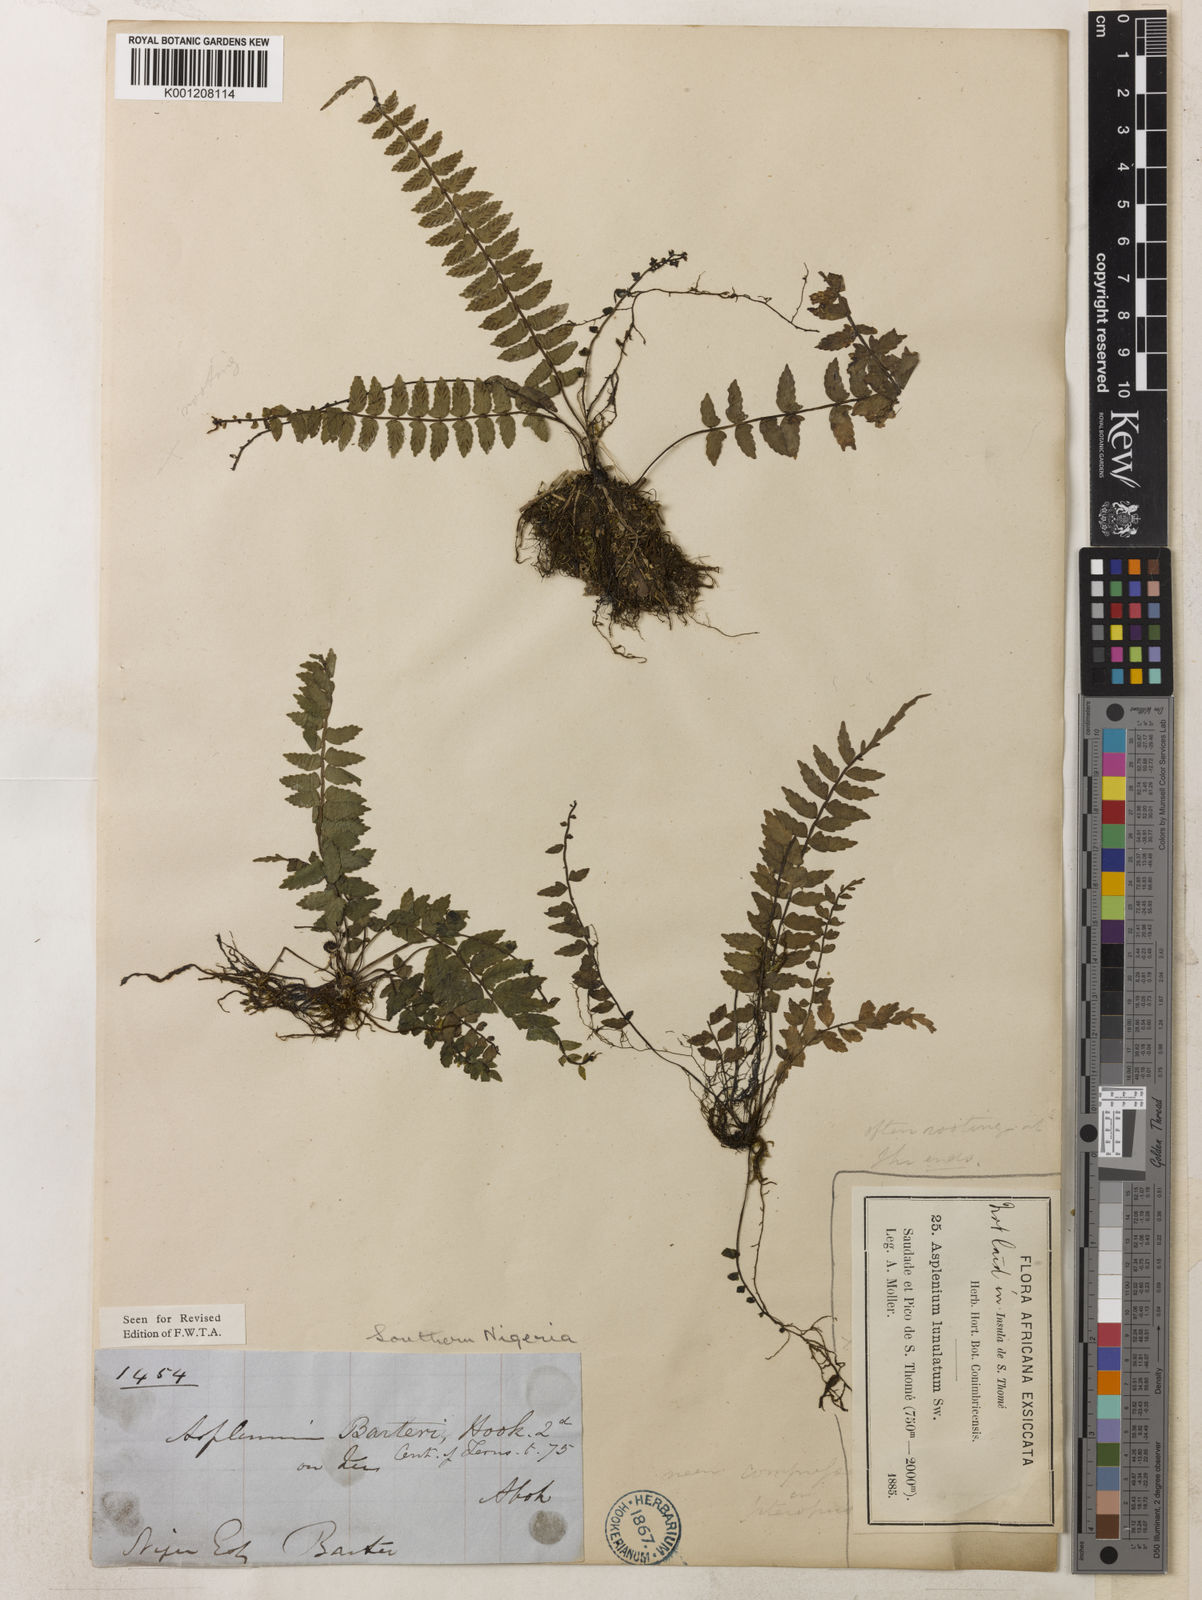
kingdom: Plantae
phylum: Tracheophyta
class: Polypodiopsida
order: Polypodiales
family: Aspleniaceae
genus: Asplenium
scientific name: Asplenium barteri
